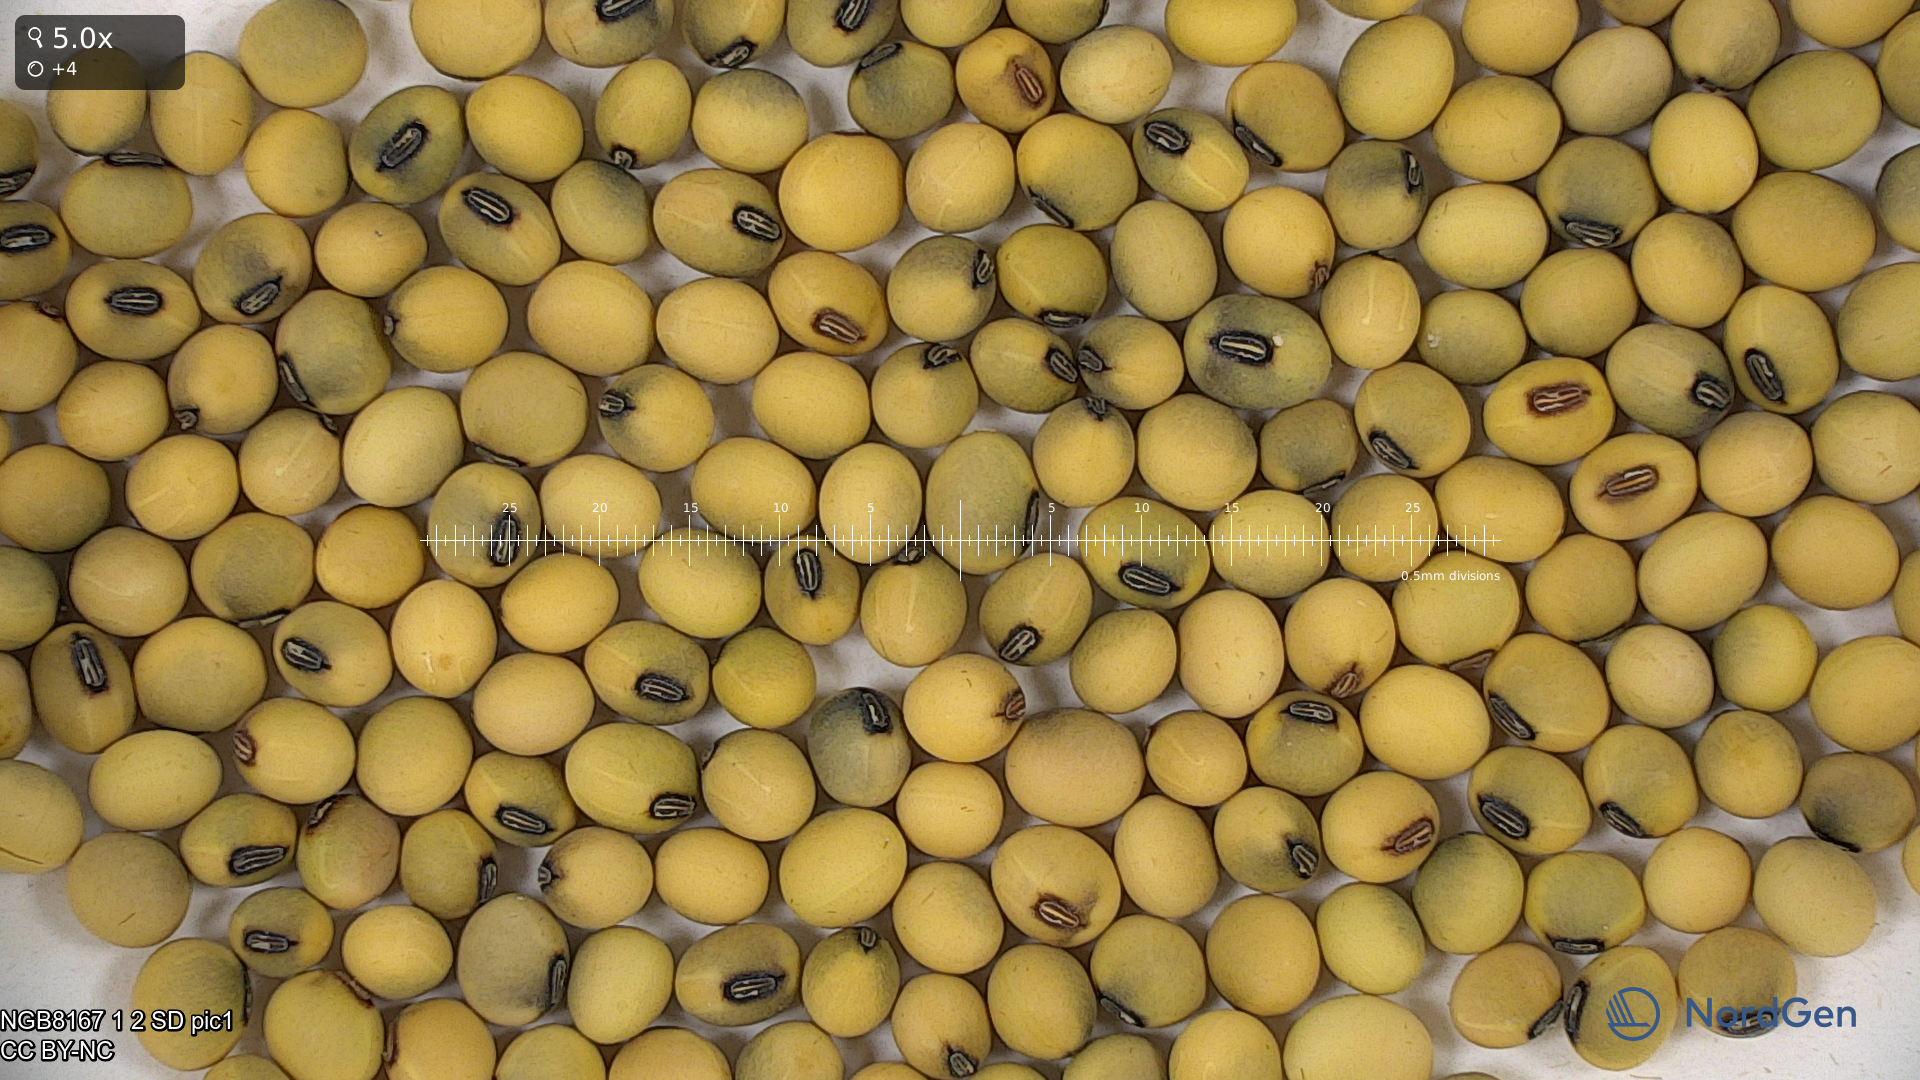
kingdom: Plantae
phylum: Tracheophyta
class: Magnoliopsida
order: Fabales
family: Fabaceae
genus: Glycine
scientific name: Glycine max
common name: Soya-bean
